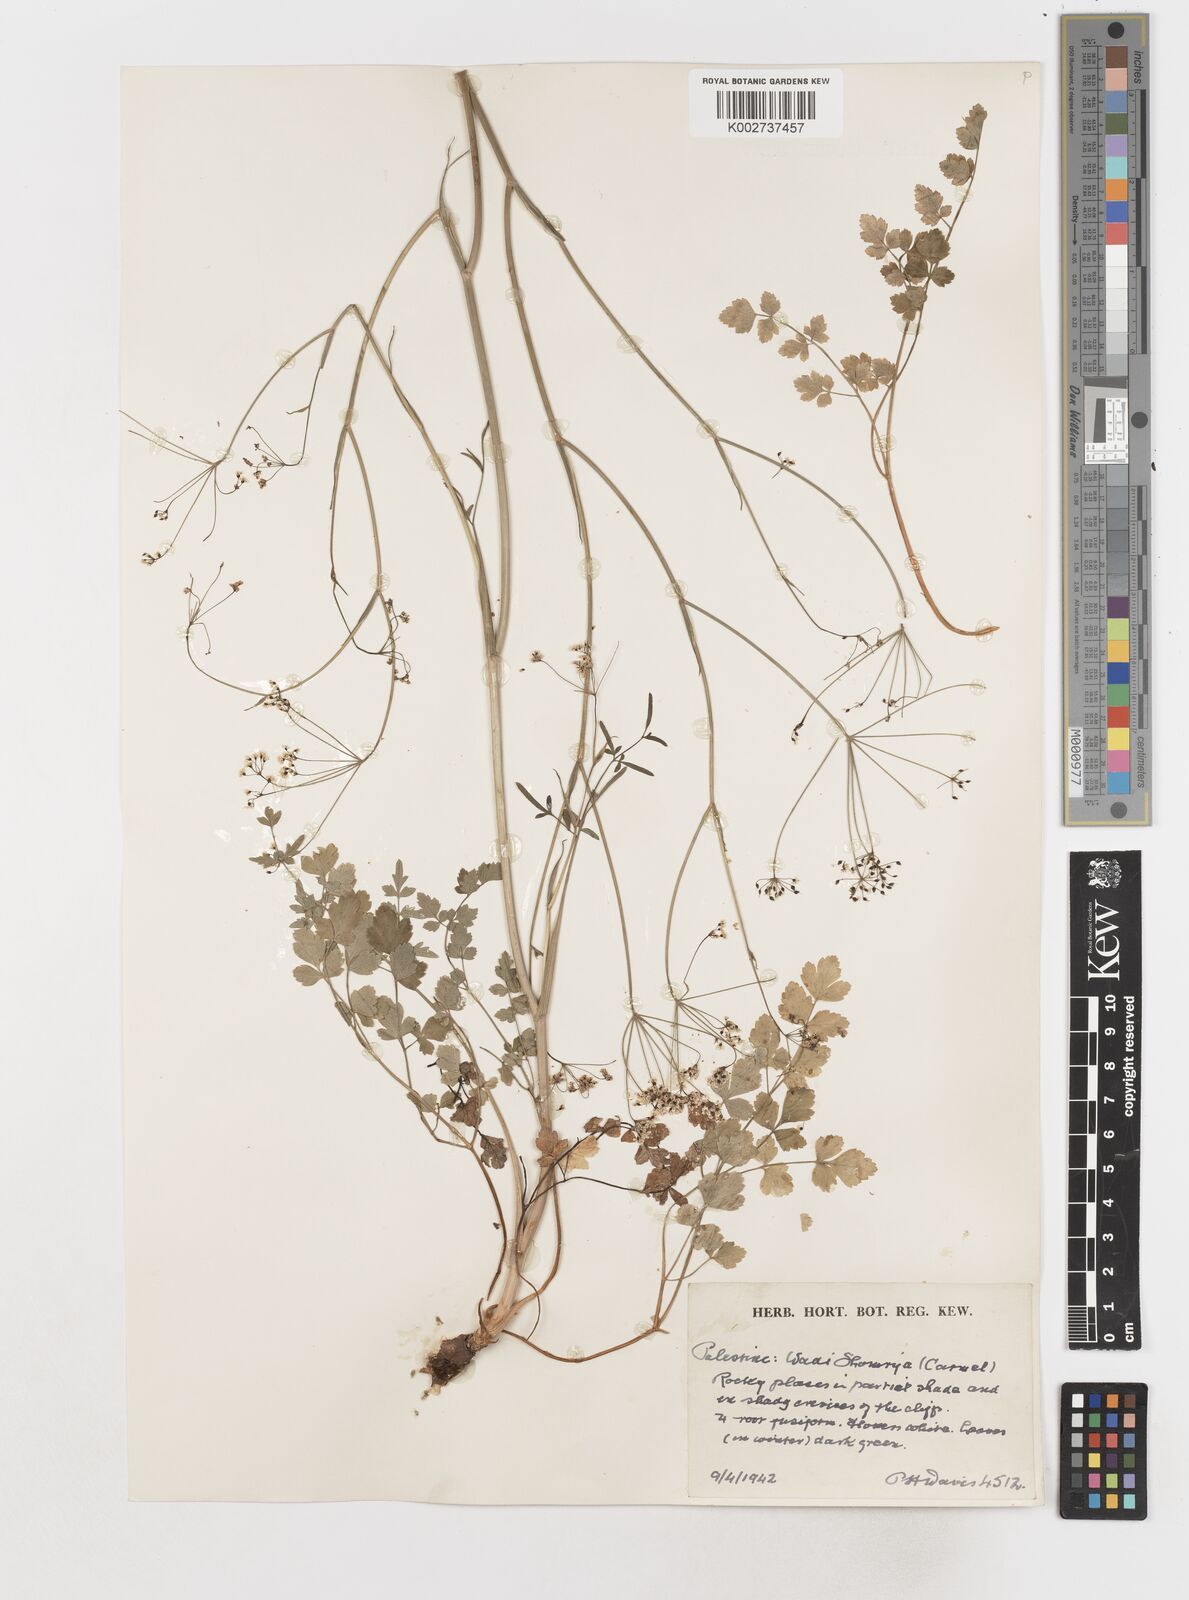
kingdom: Plantae
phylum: Tracheophyta
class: Magnoliopsida
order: Apiales
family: Apiaceae
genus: Scaligeria
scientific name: Scaligeria
